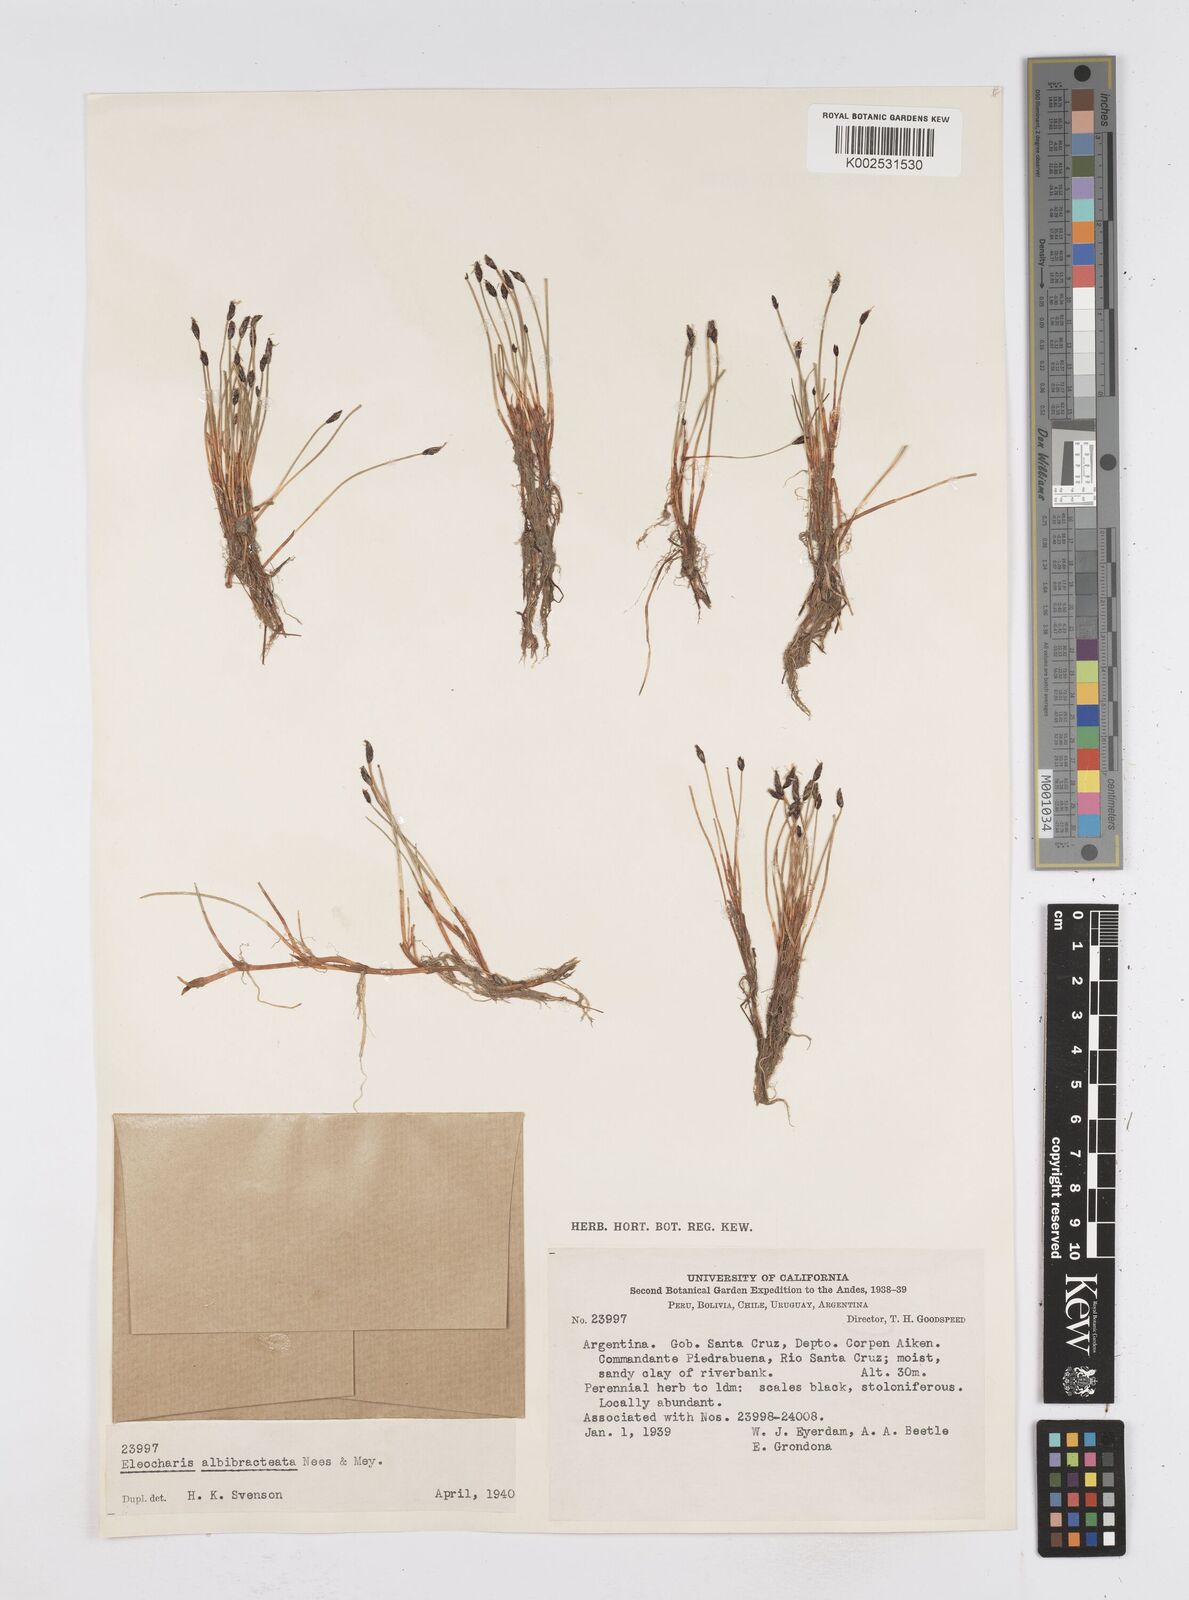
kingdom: Plantae
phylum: Tracheophyta
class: Liliopsida
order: Poales
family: Cyperaceae
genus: Eleocharis
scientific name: Eleocharis albibracteata
